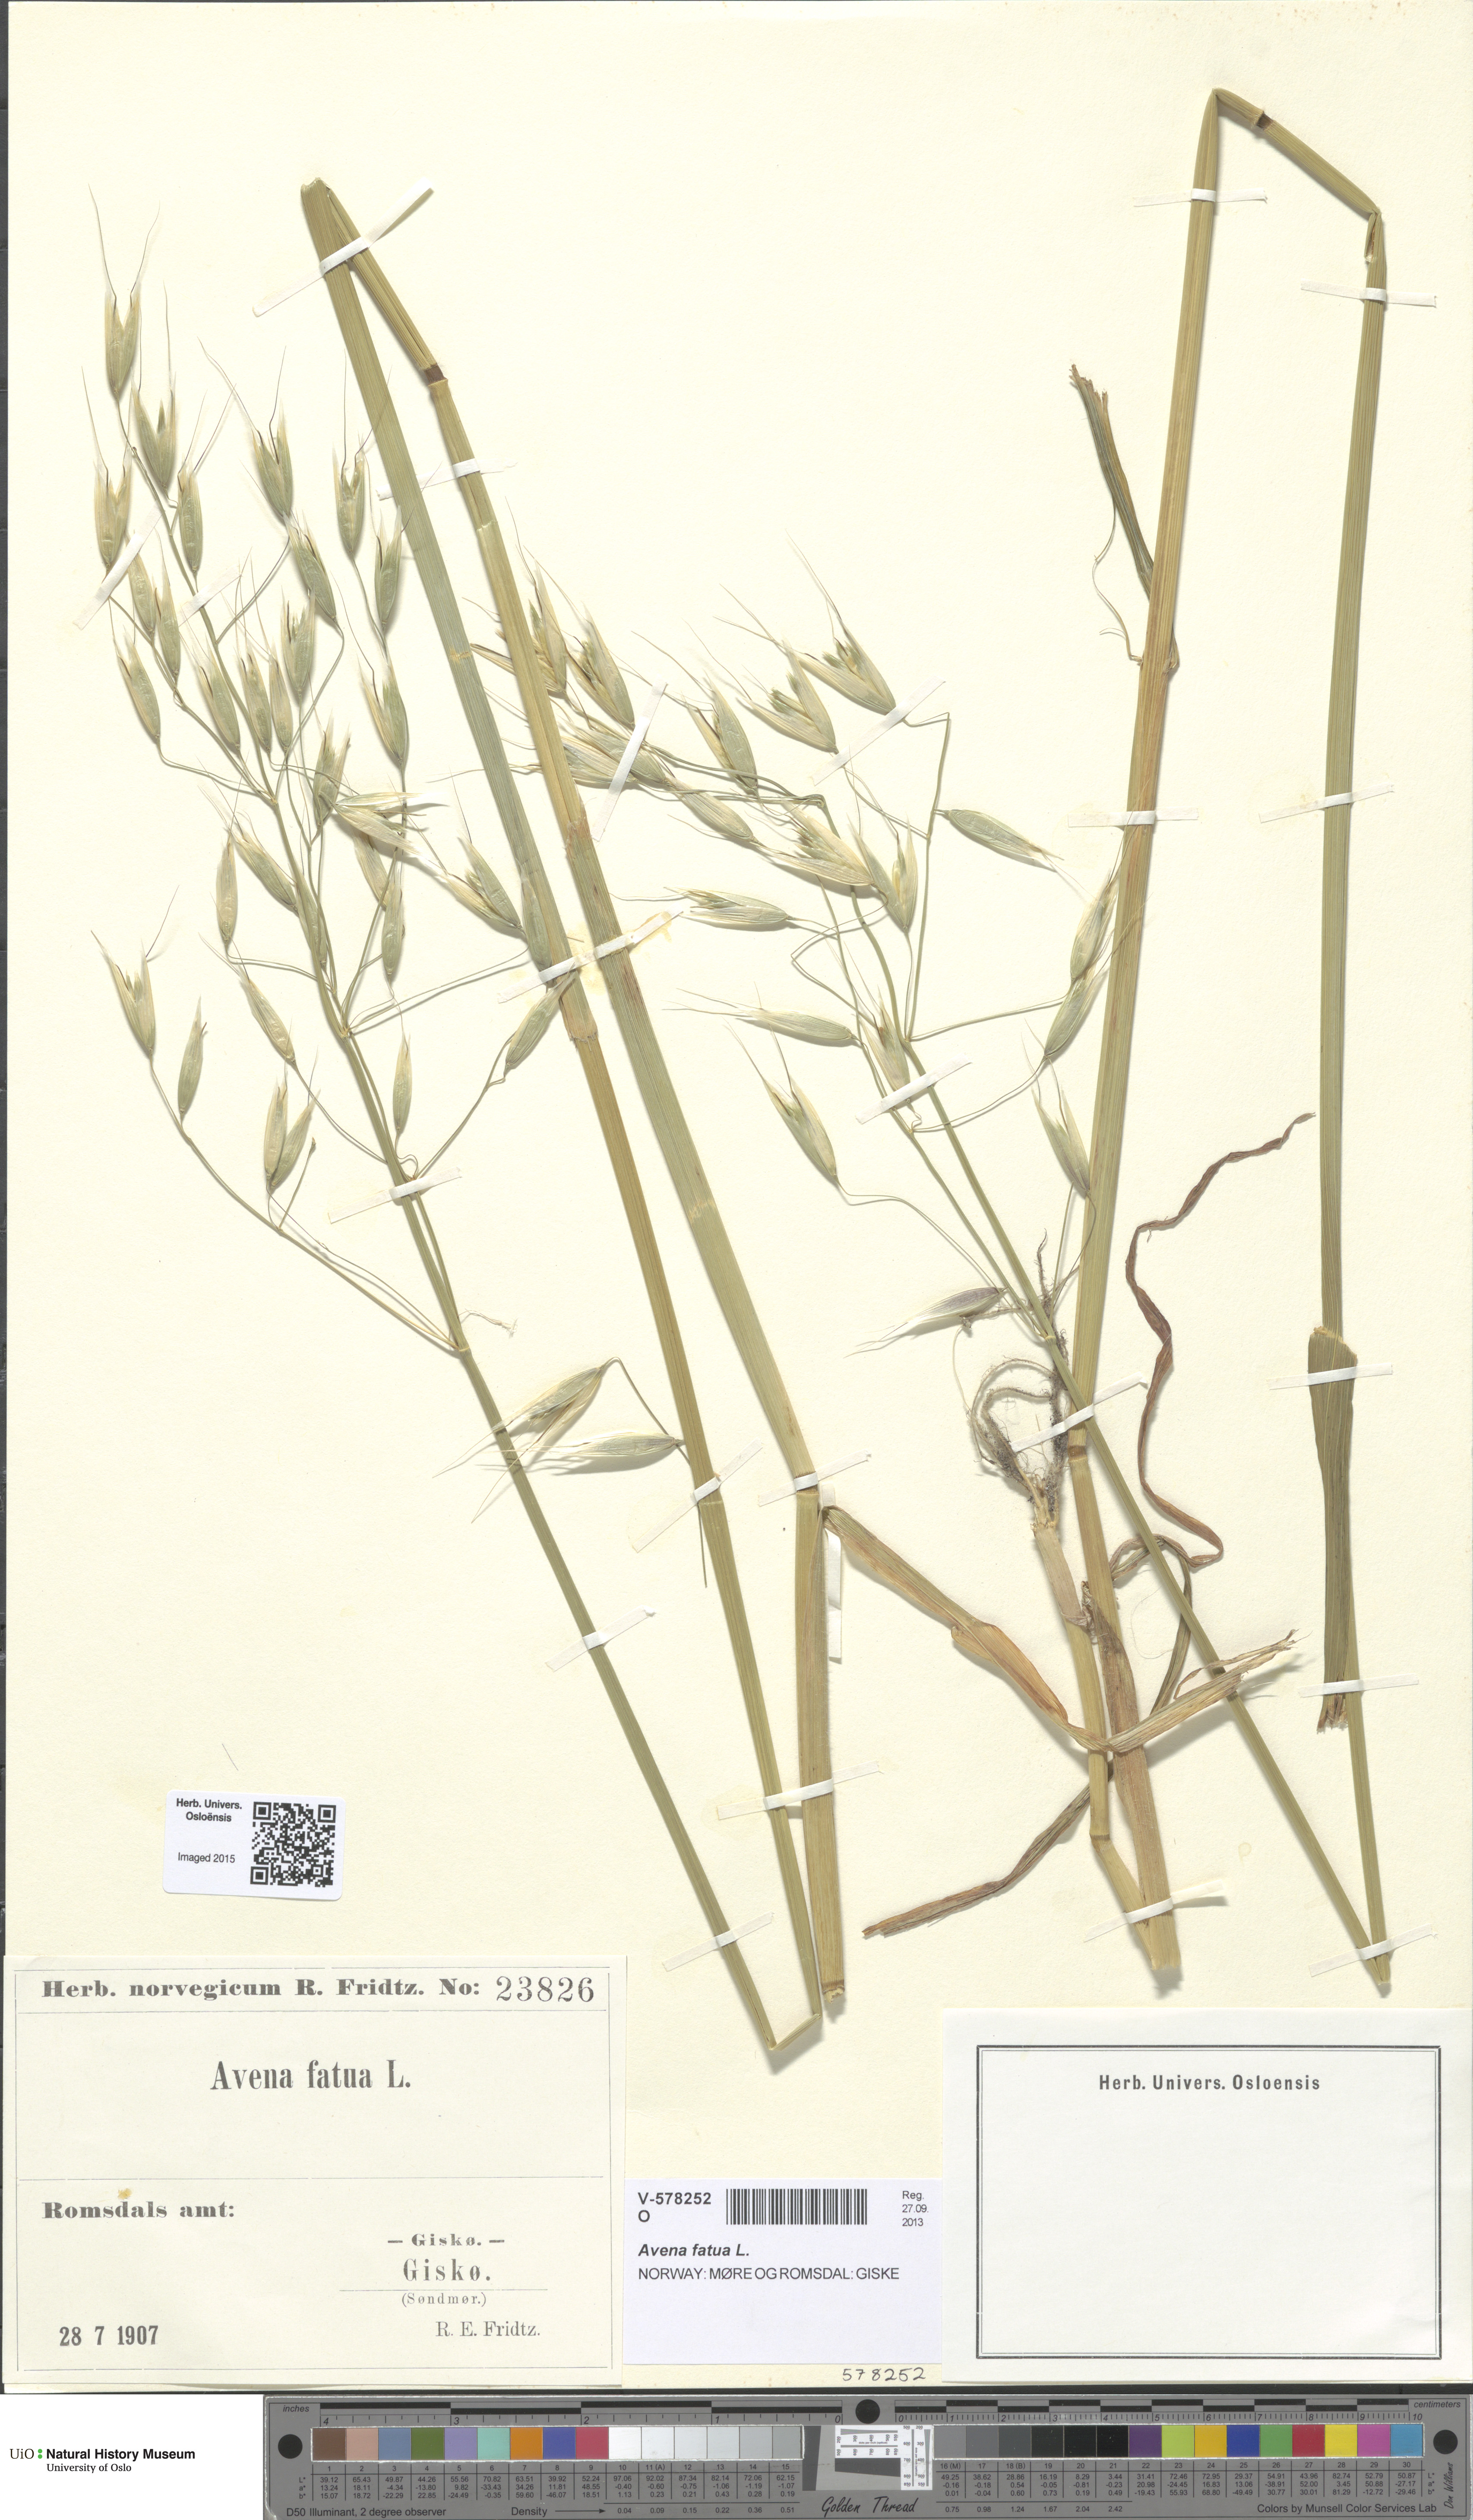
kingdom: Plantae
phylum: Tracheophyta
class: Liliopsida
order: Poales
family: Poaceae
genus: Avena
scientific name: Avena fatua
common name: Wild oat
